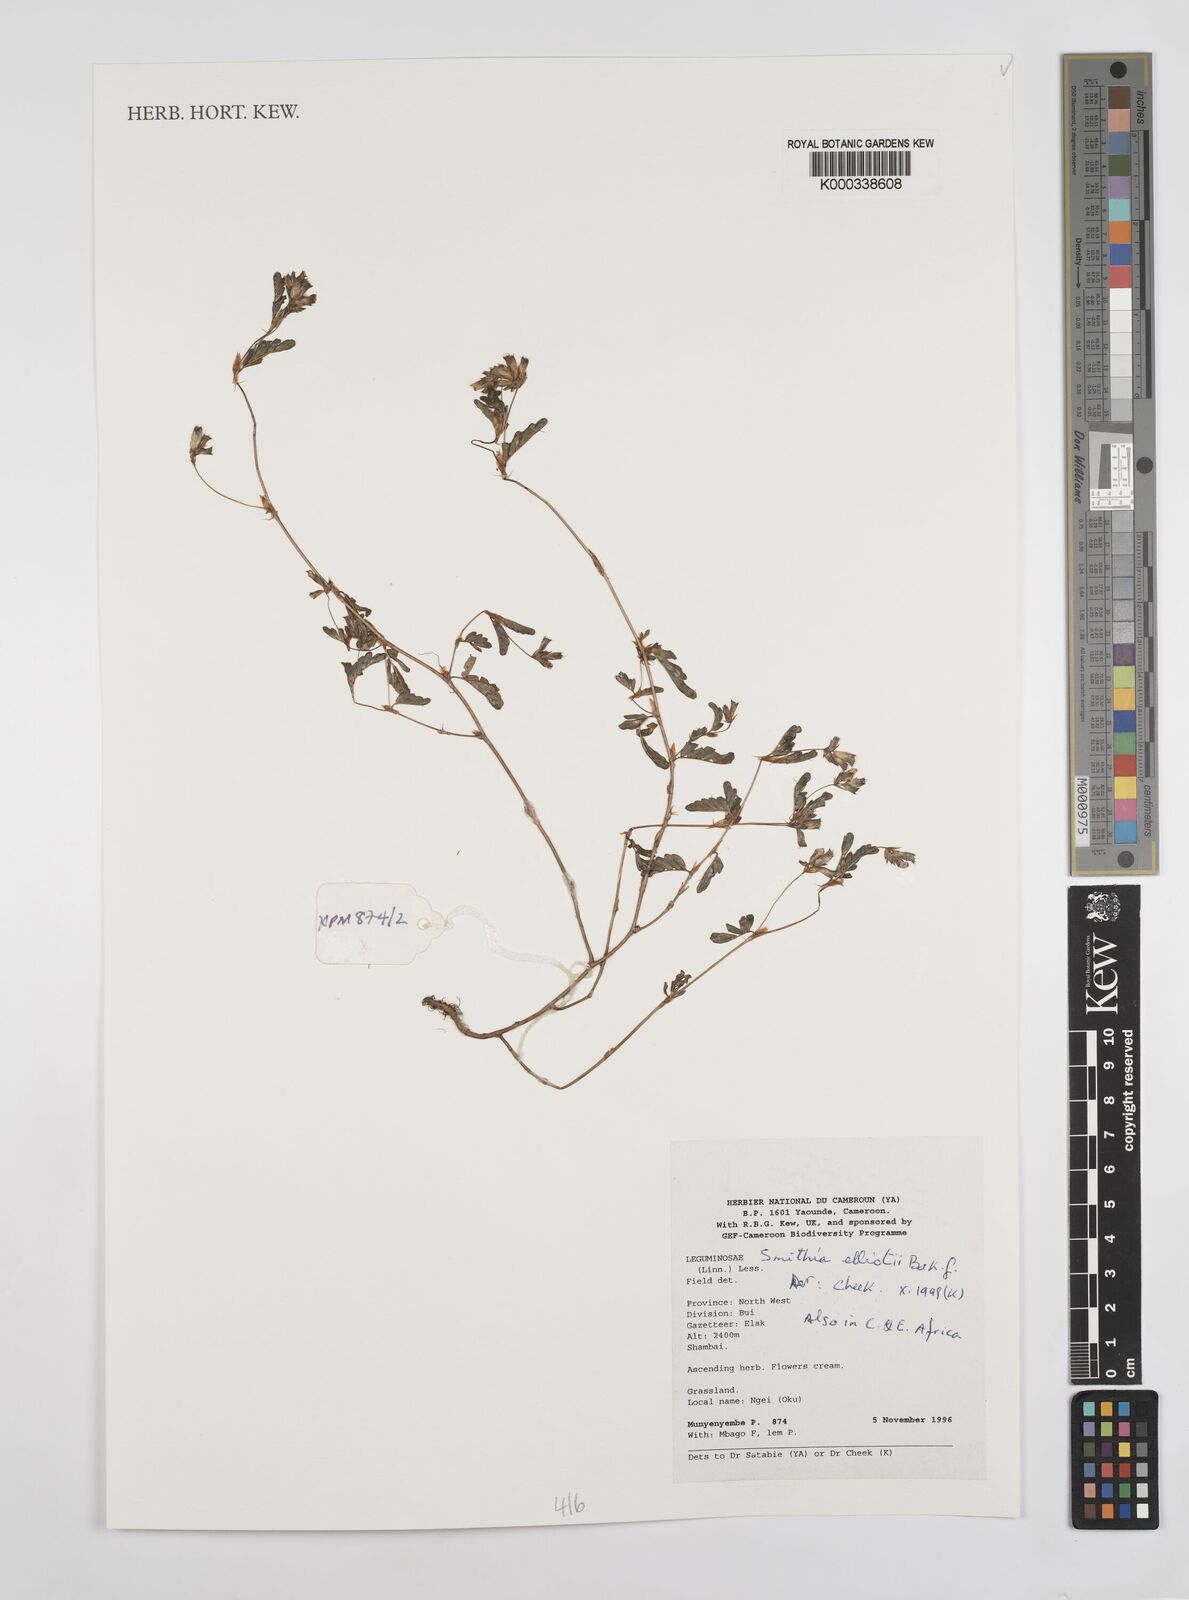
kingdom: Plantae
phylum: Tracheophyta
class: Magnoliopsida
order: Fabales
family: Fabaceae
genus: Smithia
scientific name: Smithia elliotii
